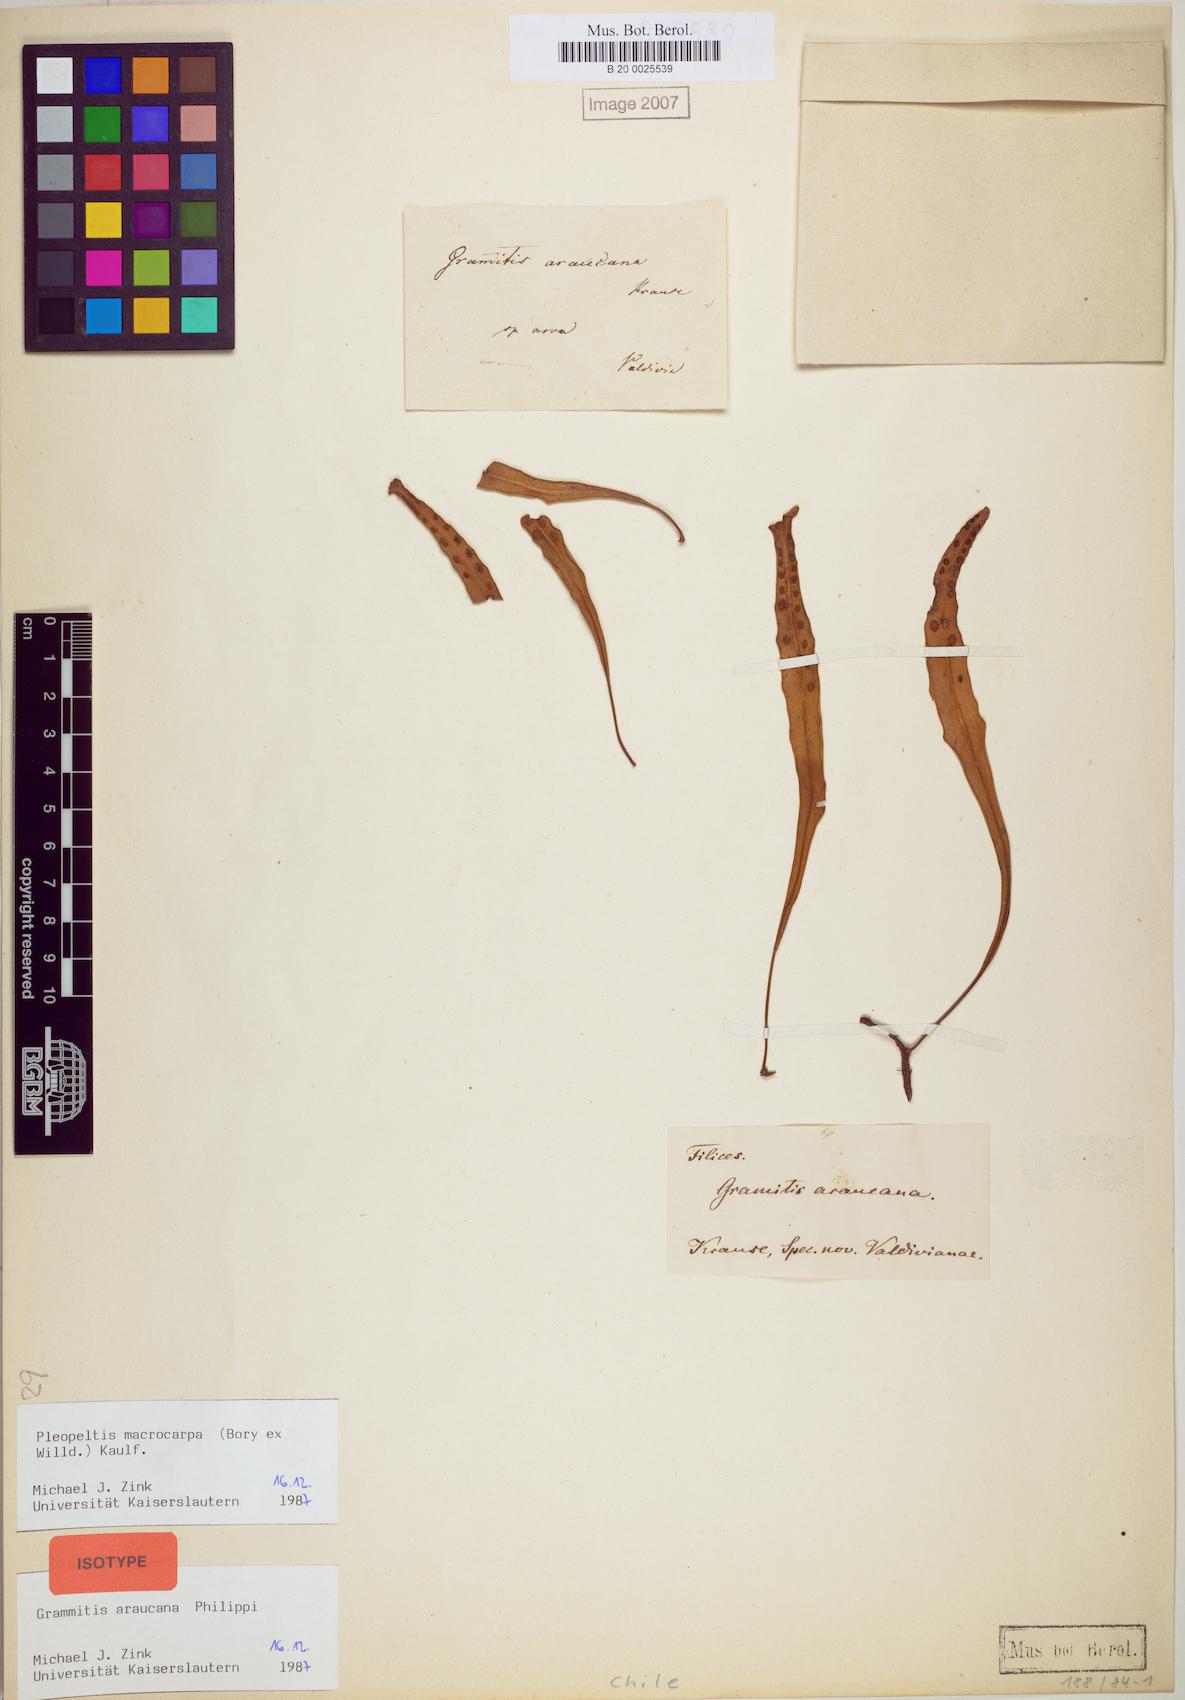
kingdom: Plantae
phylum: Tracheophyta
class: Polypodiopsida
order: Polypodiales
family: Polypodiaceae
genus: Pleopeltis
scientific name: Pleopeltis macrocarpa
